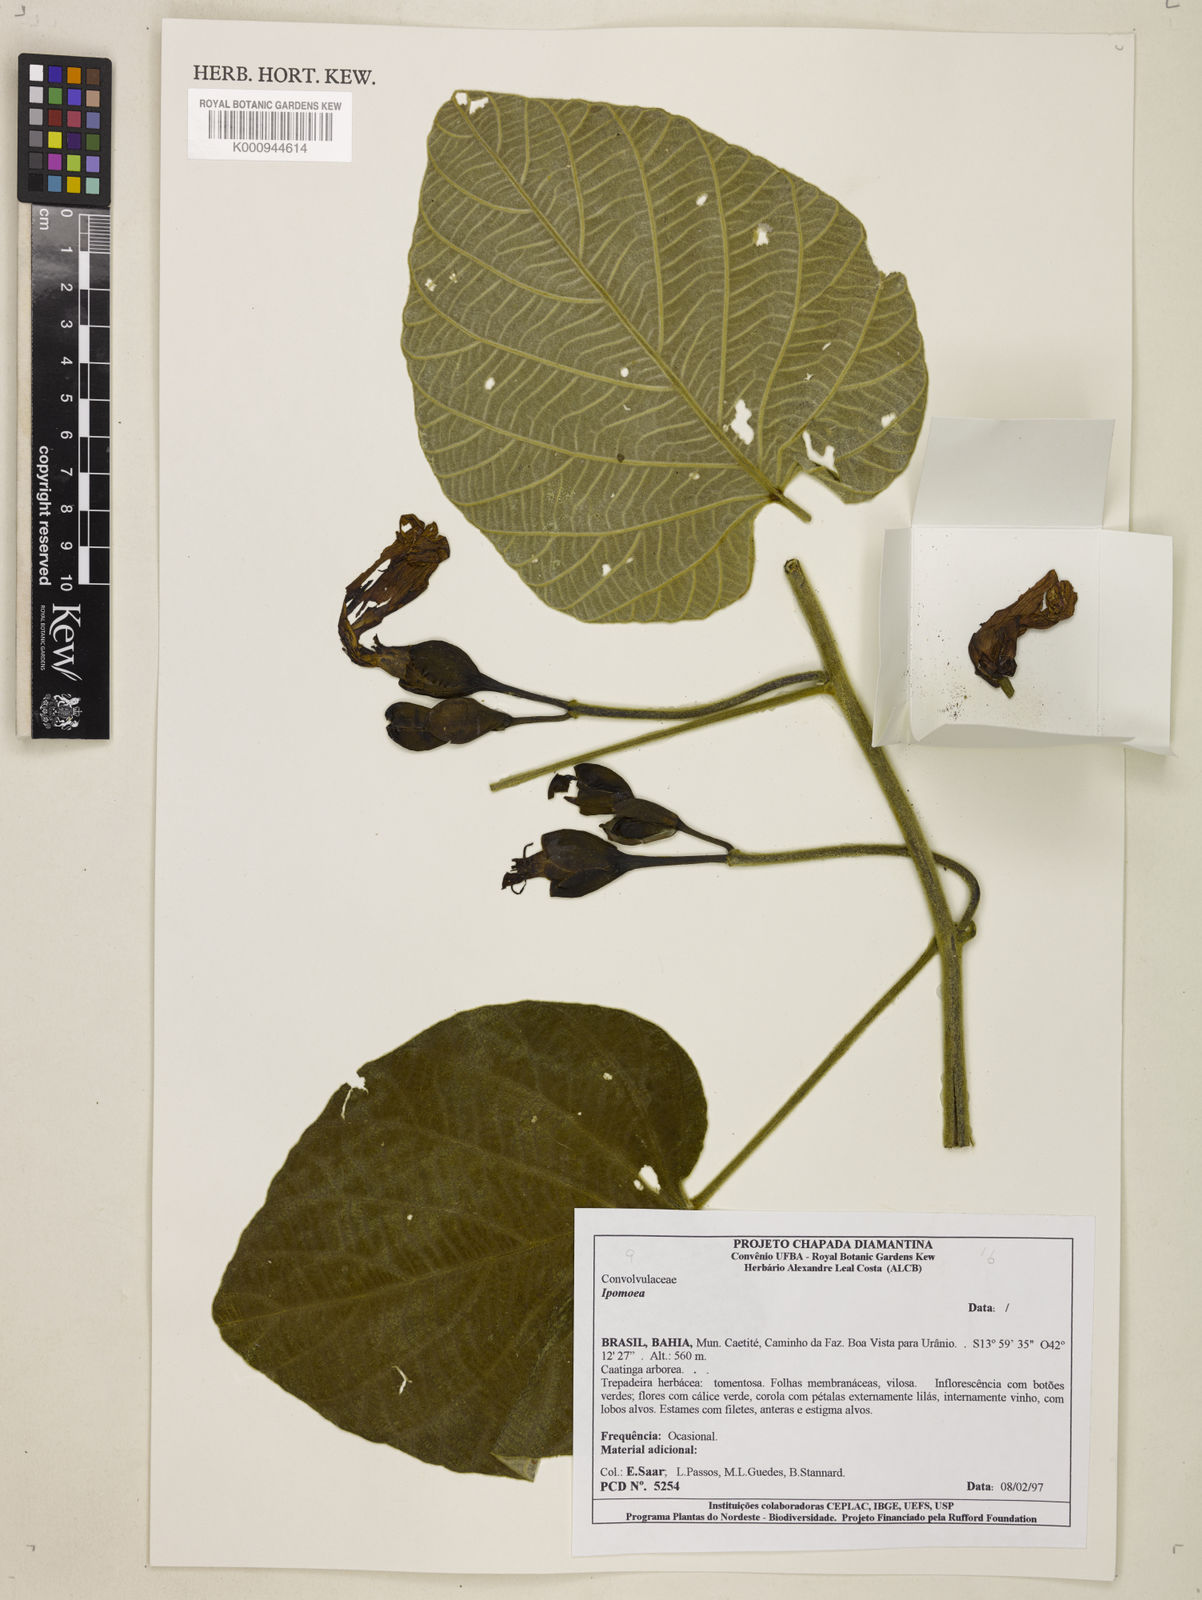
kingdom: Plantae
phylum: Tracheophyta
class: Magnoliopsida
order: Solanales
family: Convolvulaceae
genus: Ipomoea
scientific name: Ipomoea magna
